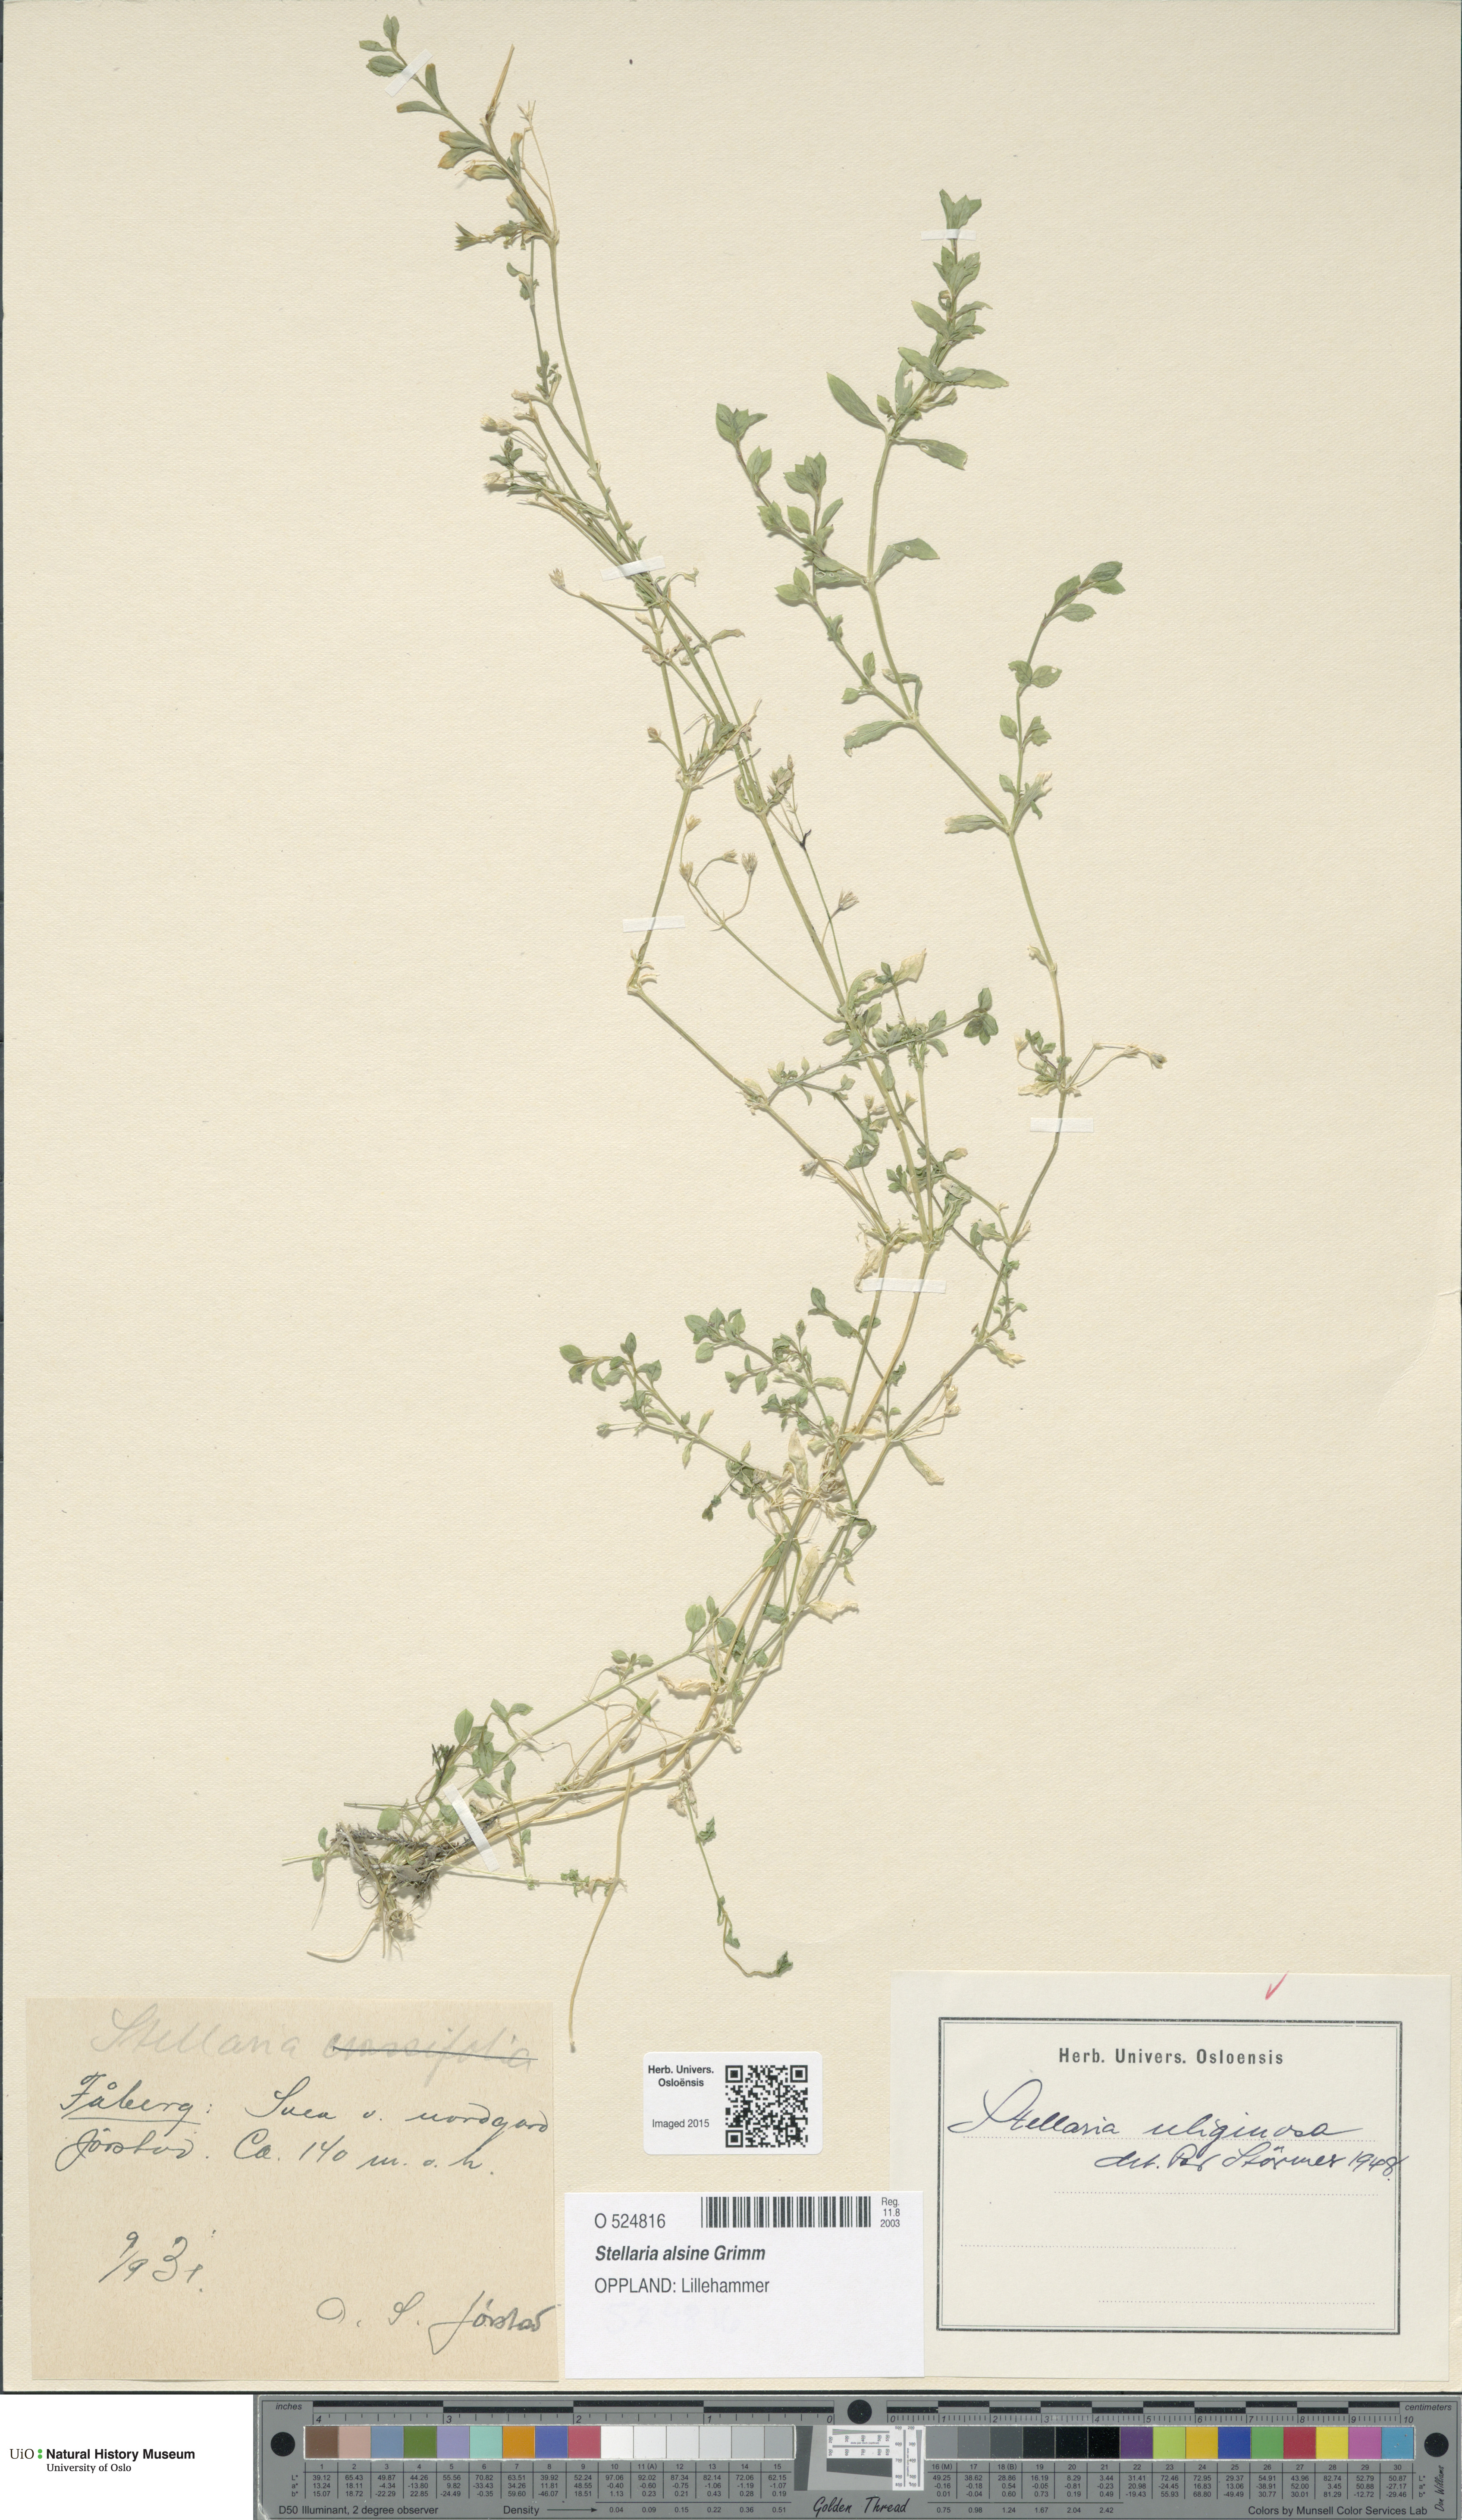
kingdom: Plantae
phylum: Tracheophyta
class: Magnoliopsida
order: Caryophyllales
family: Caryophyllaceae
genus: Stellaria
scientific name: Stellaria alsine
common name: Bog stitchwort
